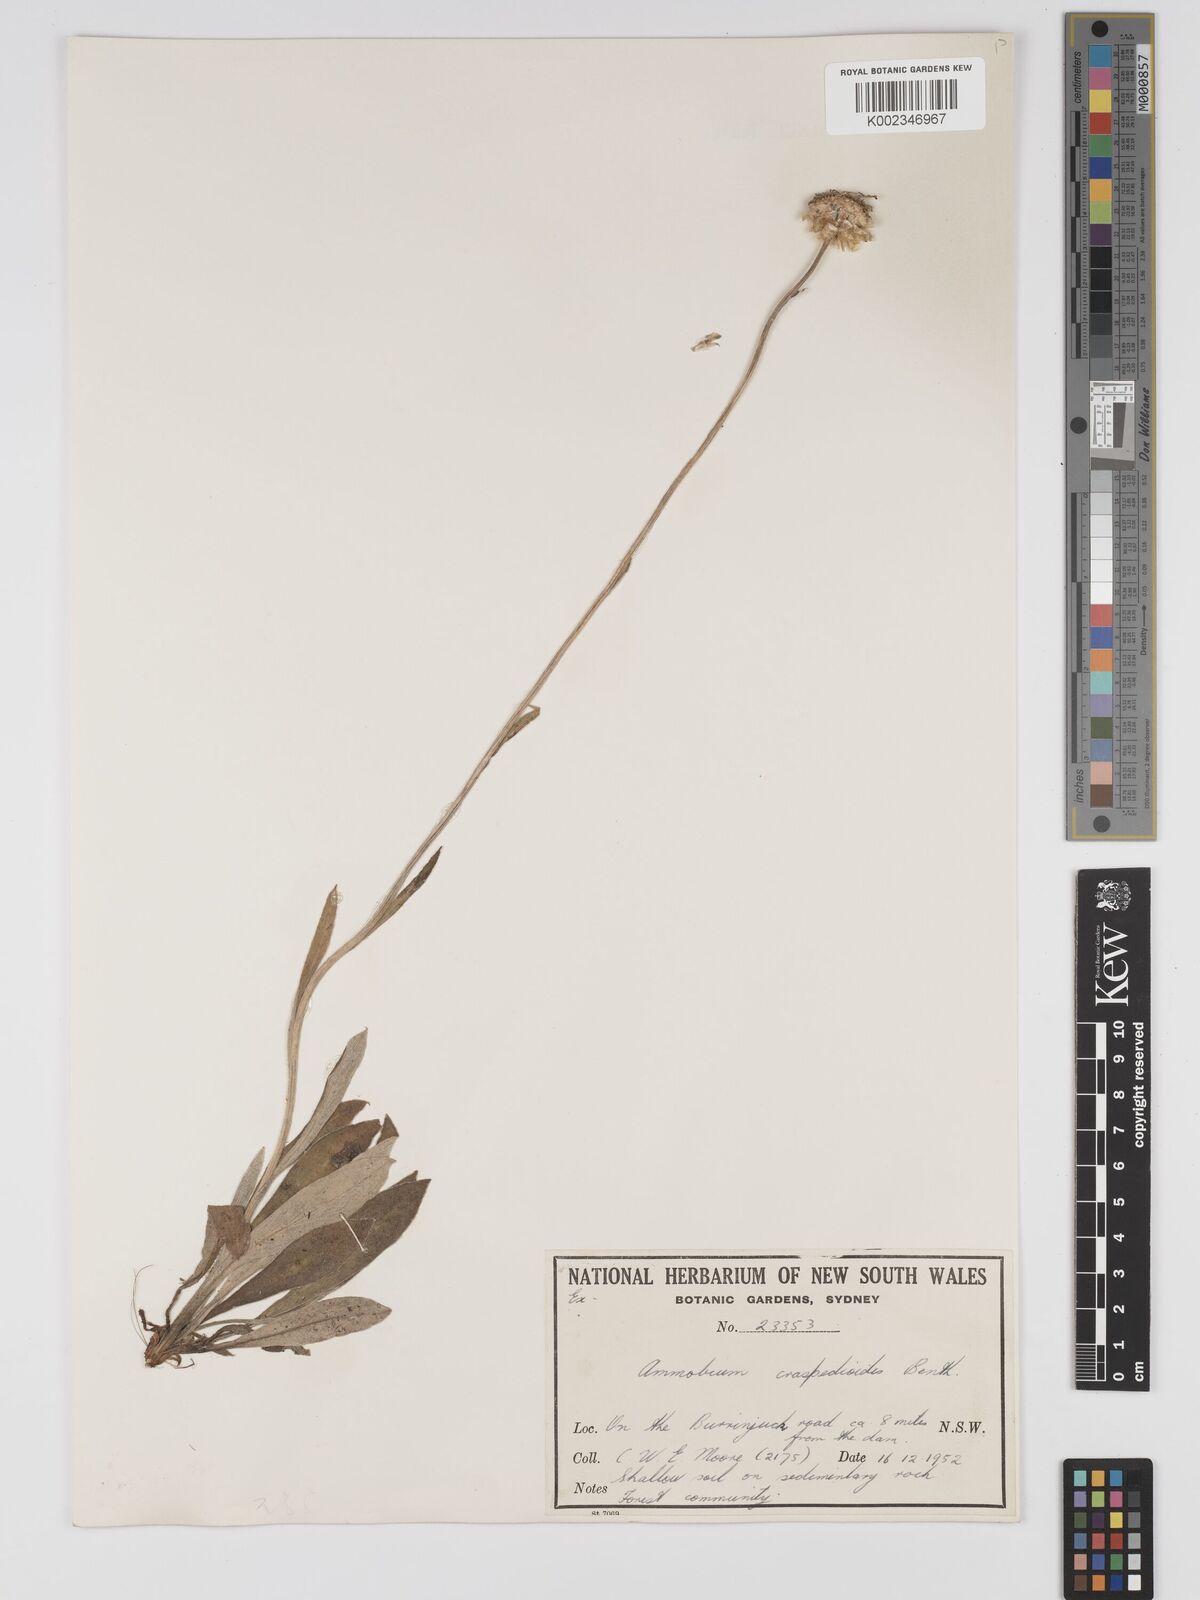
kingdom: Plantae
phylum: Tracheophyta
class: Magnoliopsida
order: Asterales
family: Asteraceae
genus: Ammobium
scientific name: Ammobium craspedioides
